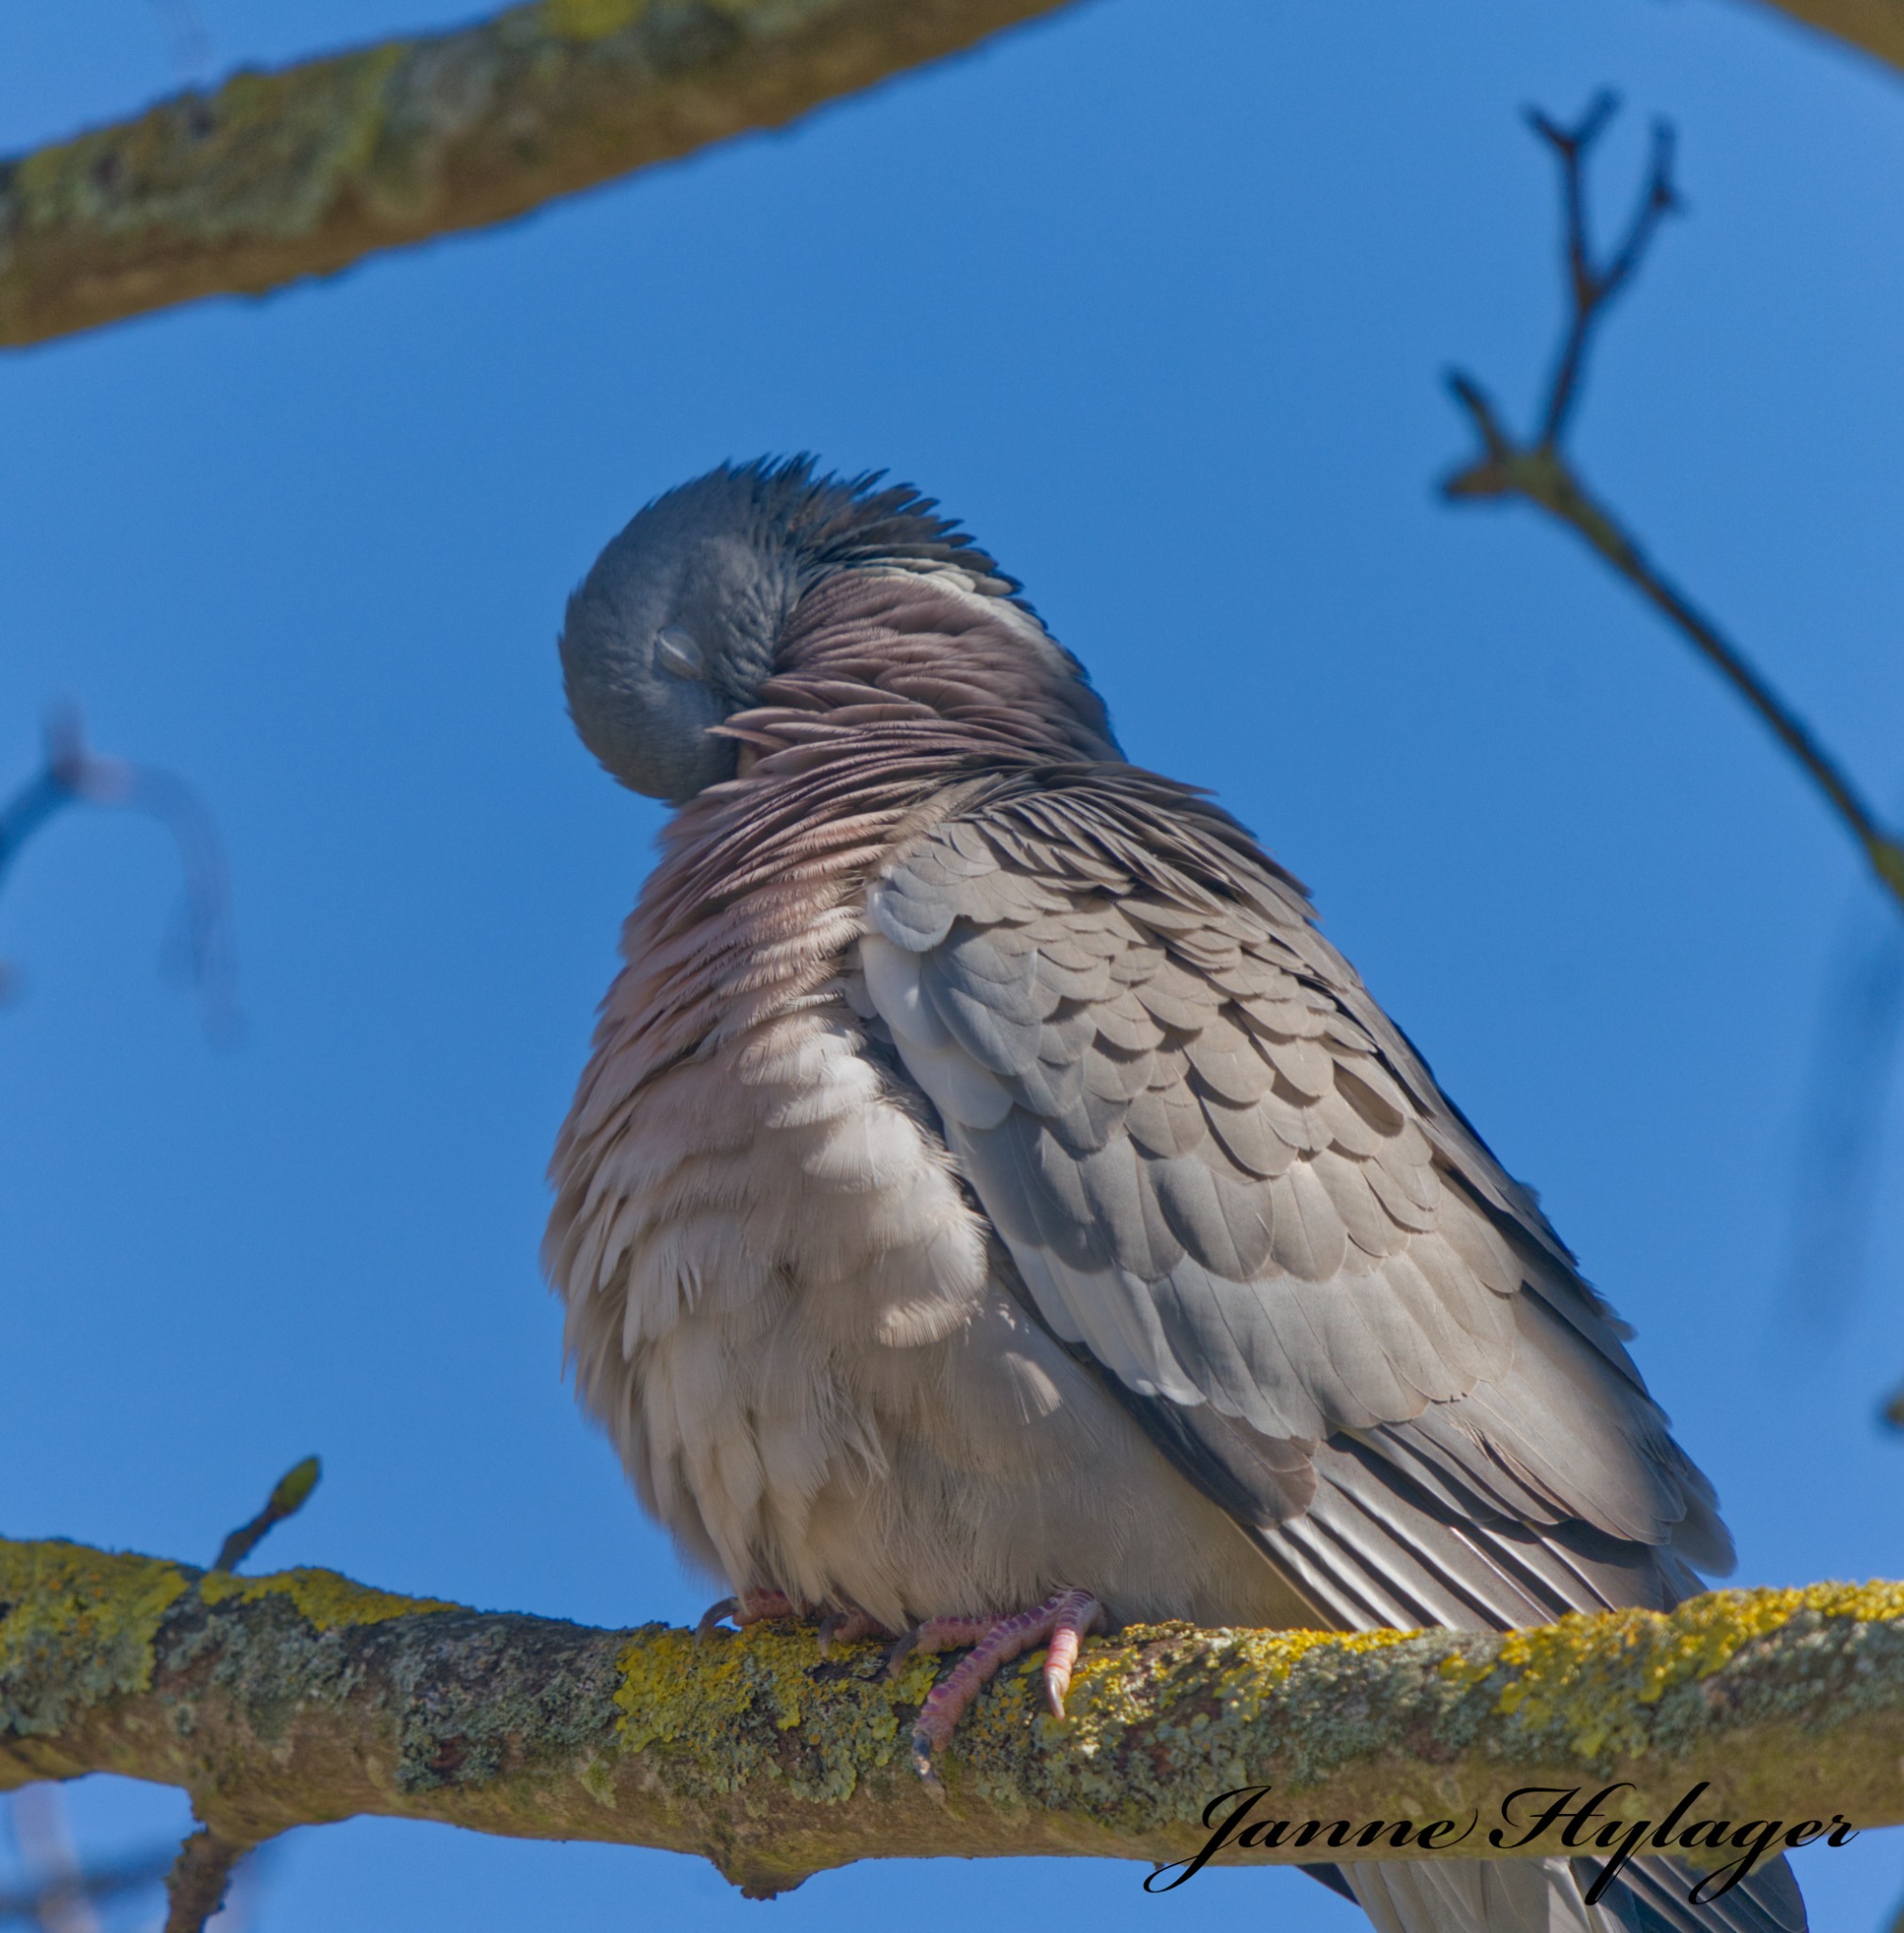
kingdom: Animalia
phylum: Chordata
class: Aves
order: Columbiformes
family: Columbidae
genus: Columba
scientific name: Columba palumbus
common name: Ringdue
